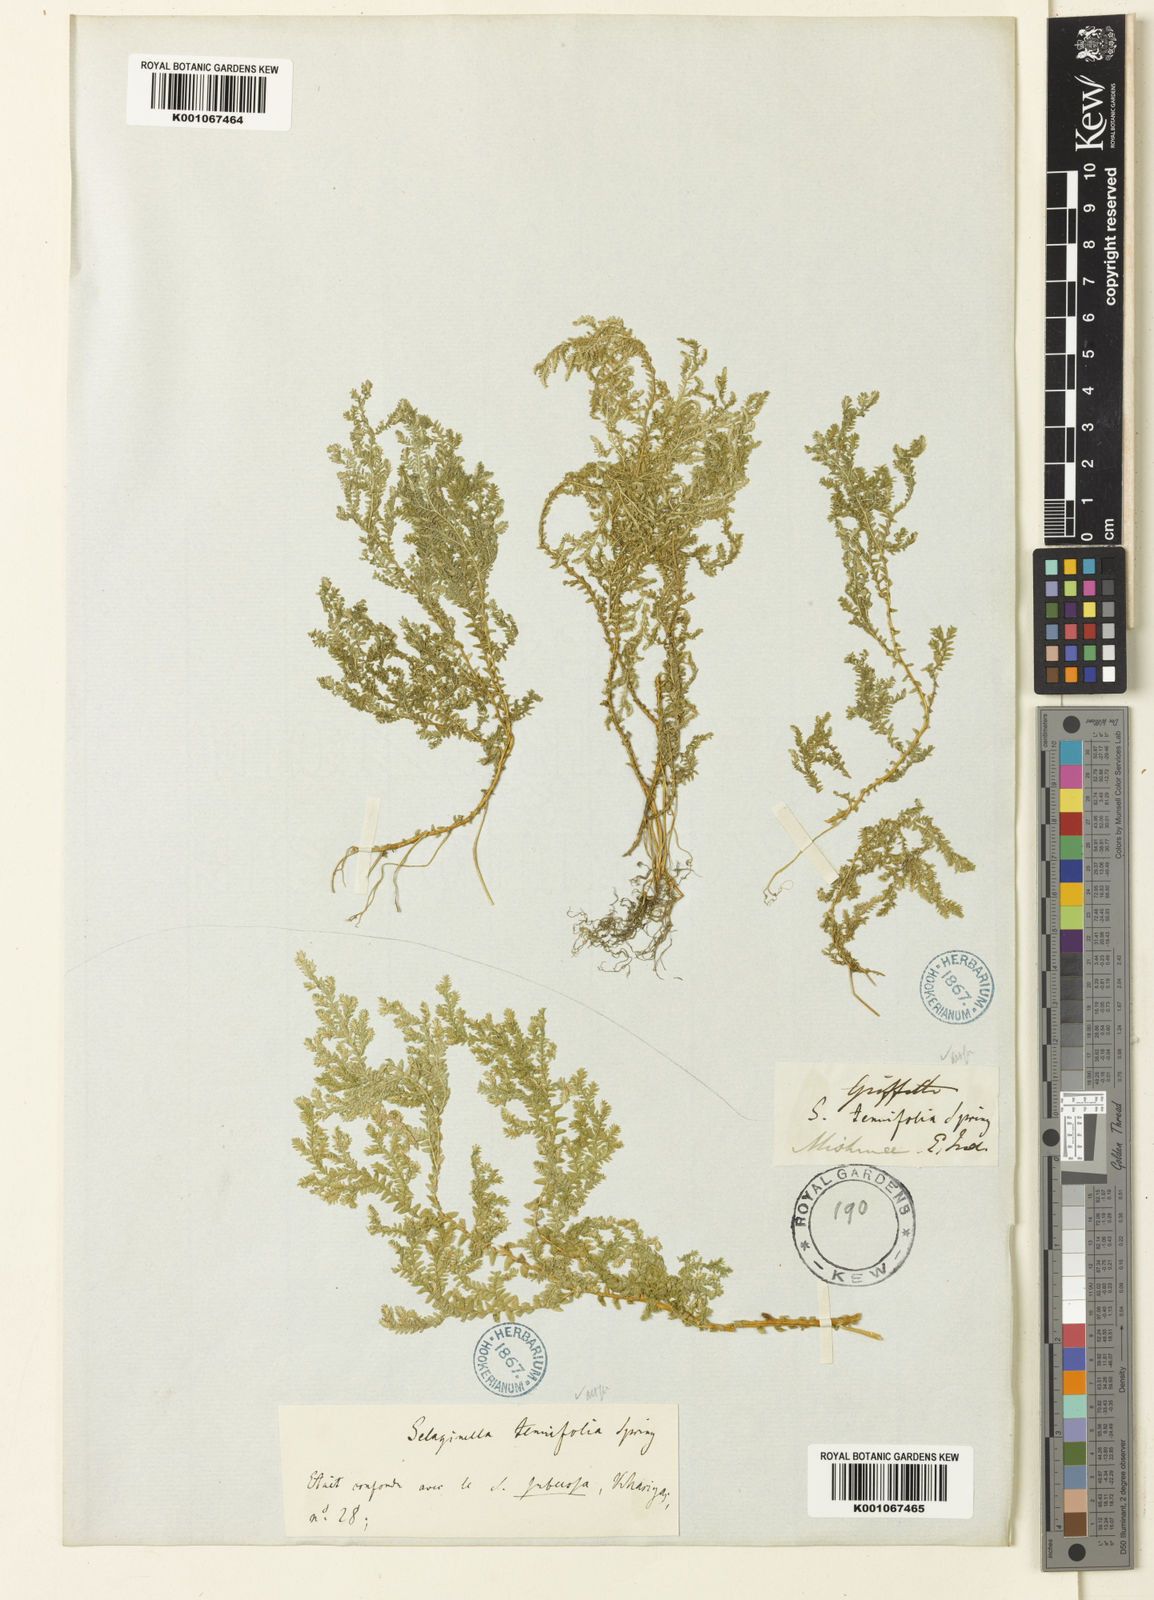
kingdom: Plantae
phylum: Tracheophyta
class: Lycopodiopsida
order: Selaginellales
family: Selaginellaceae
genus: Selaginella
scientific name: Selaginella tenuifolia
